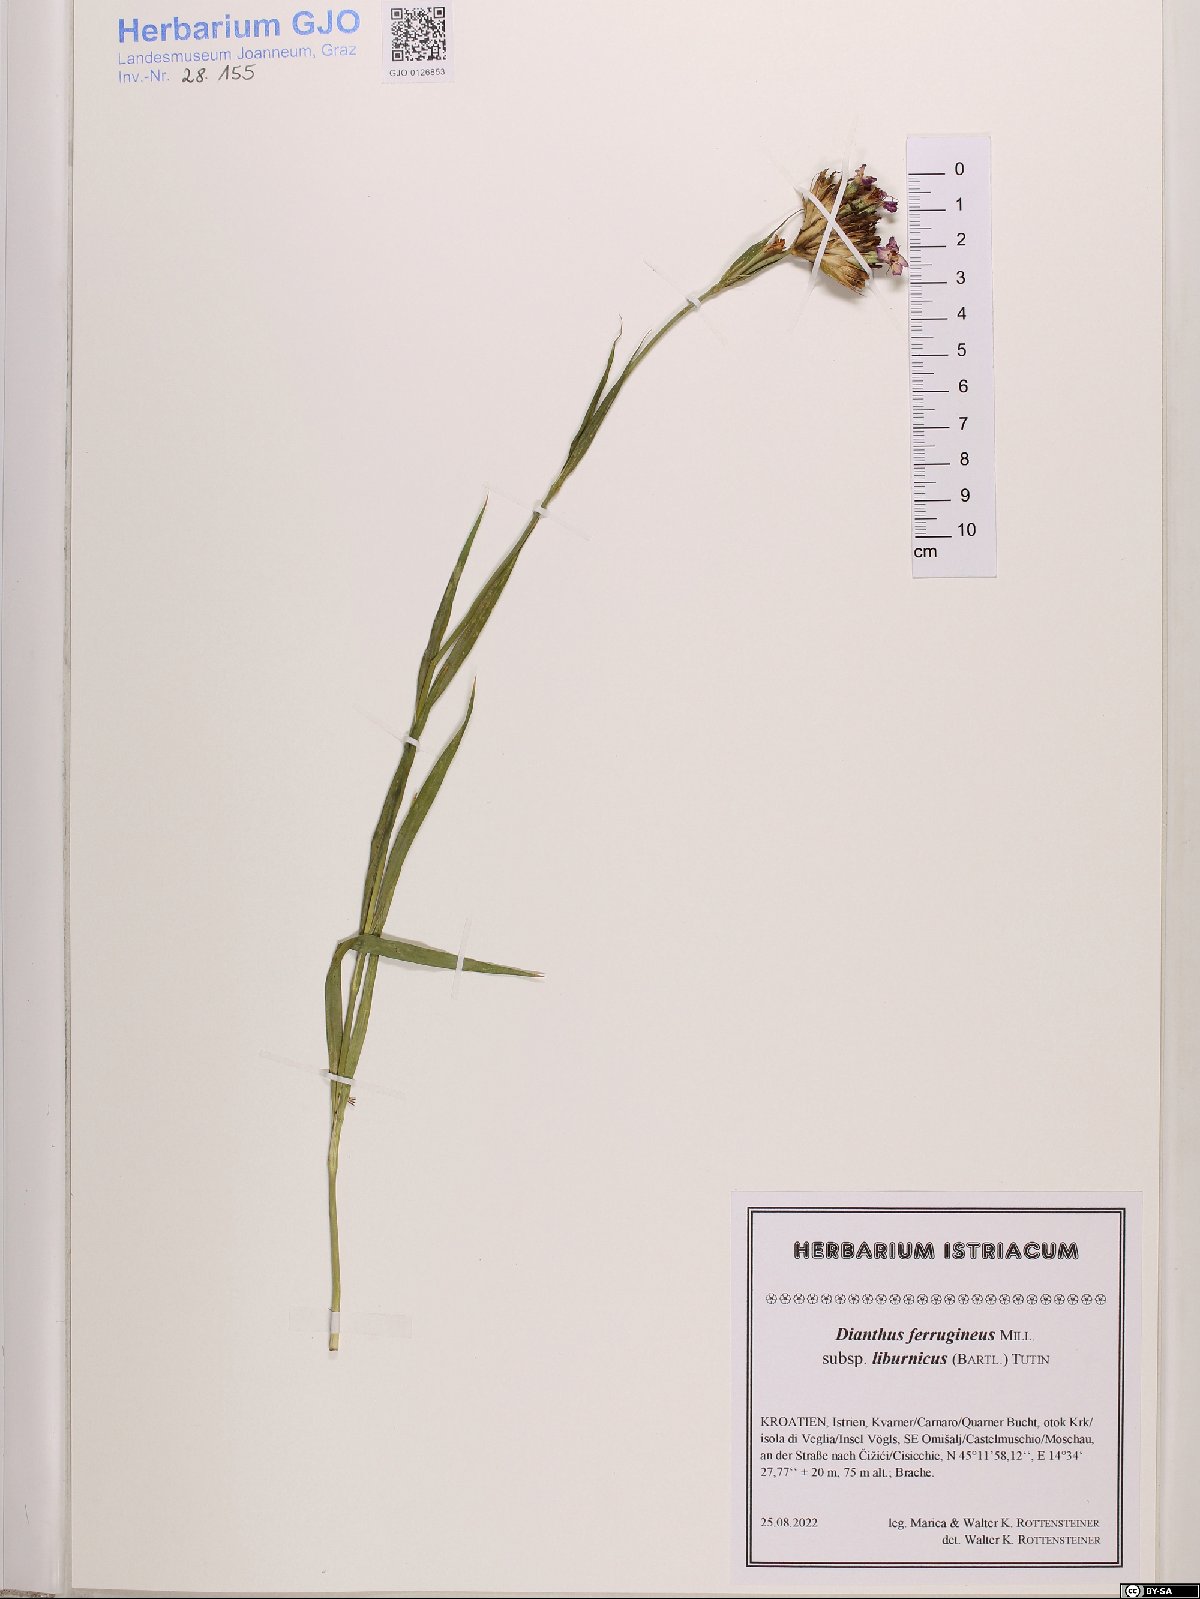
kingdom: Plantae
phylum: Tracheophyta
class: Magnoliopsida
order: Caryophyllales
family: Caryophyllaceae
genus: Dianthus
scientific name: Dianthus balbisii
